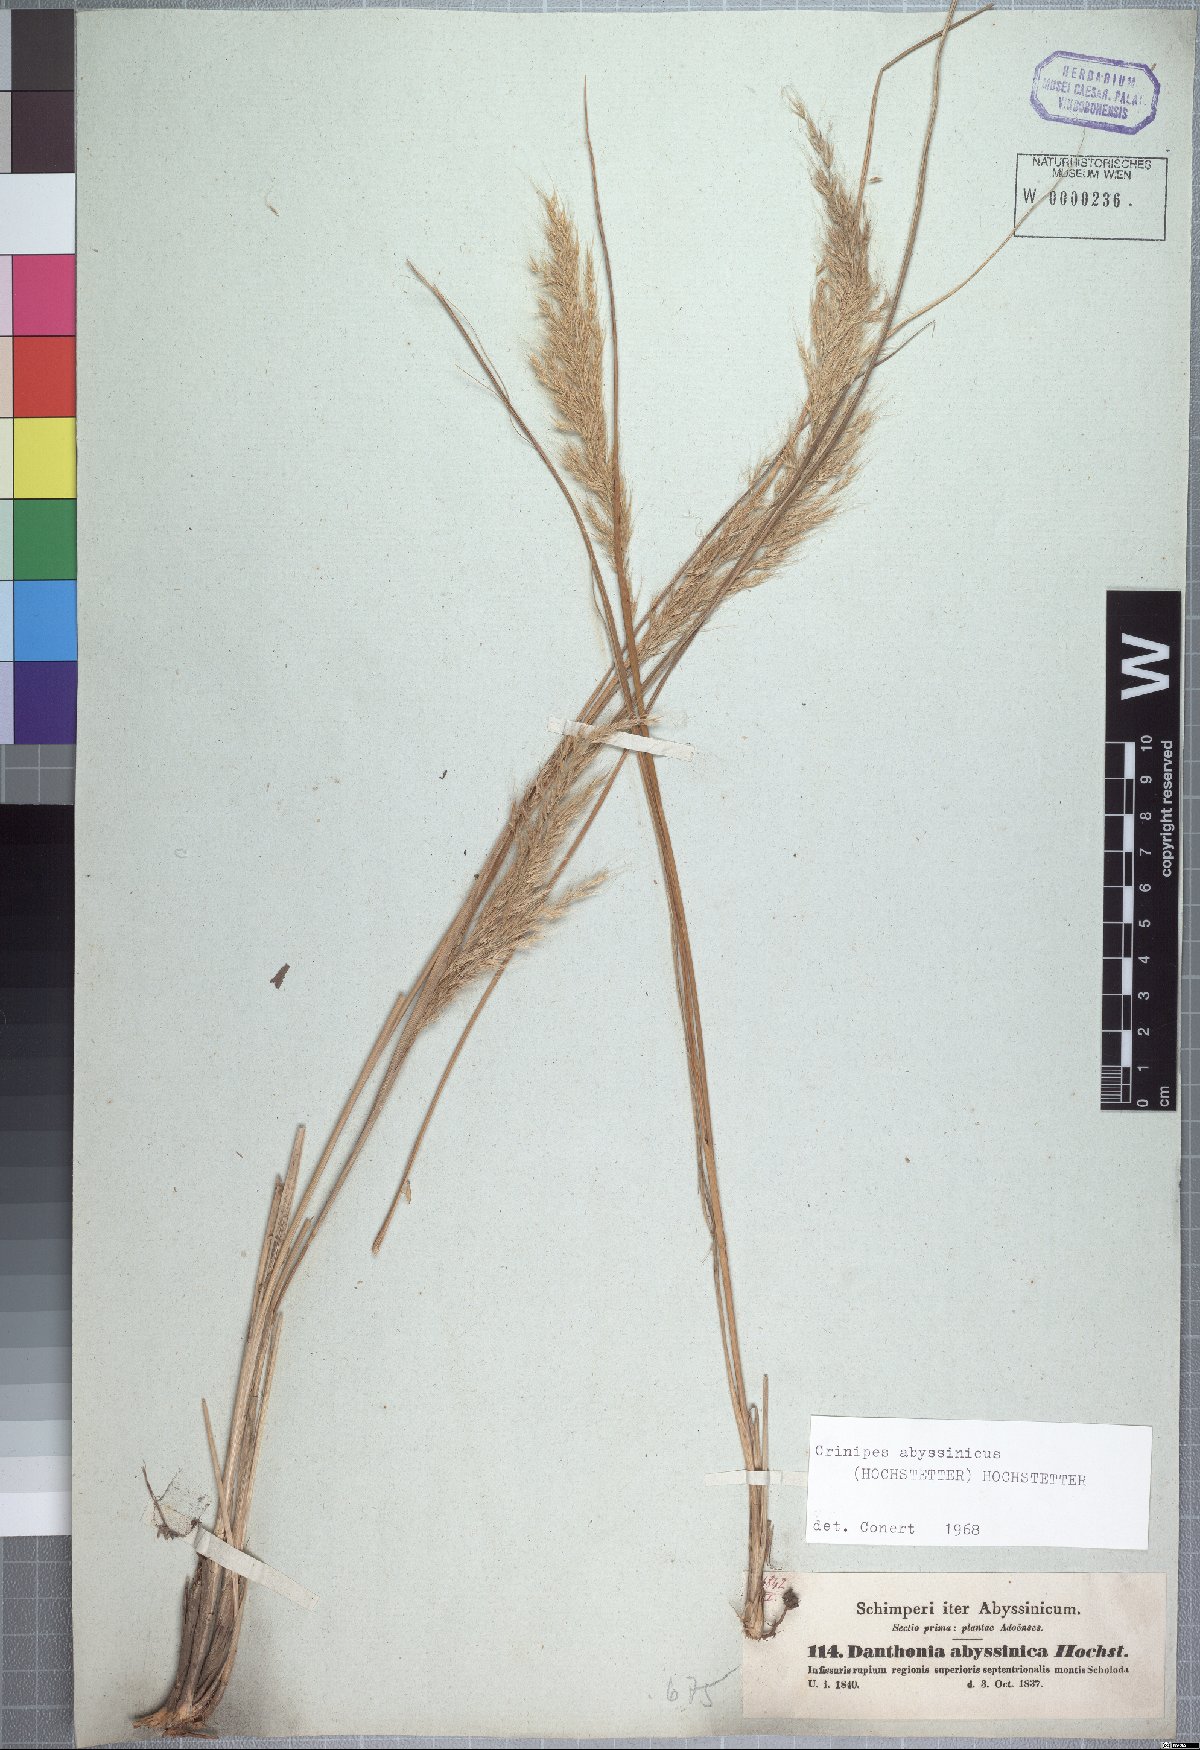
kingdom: Plantae
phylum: Tracheophyta
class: Liliopsida
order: Poales
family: Poaceae
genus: Crinipes
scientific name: Crinipes abyssinicus
